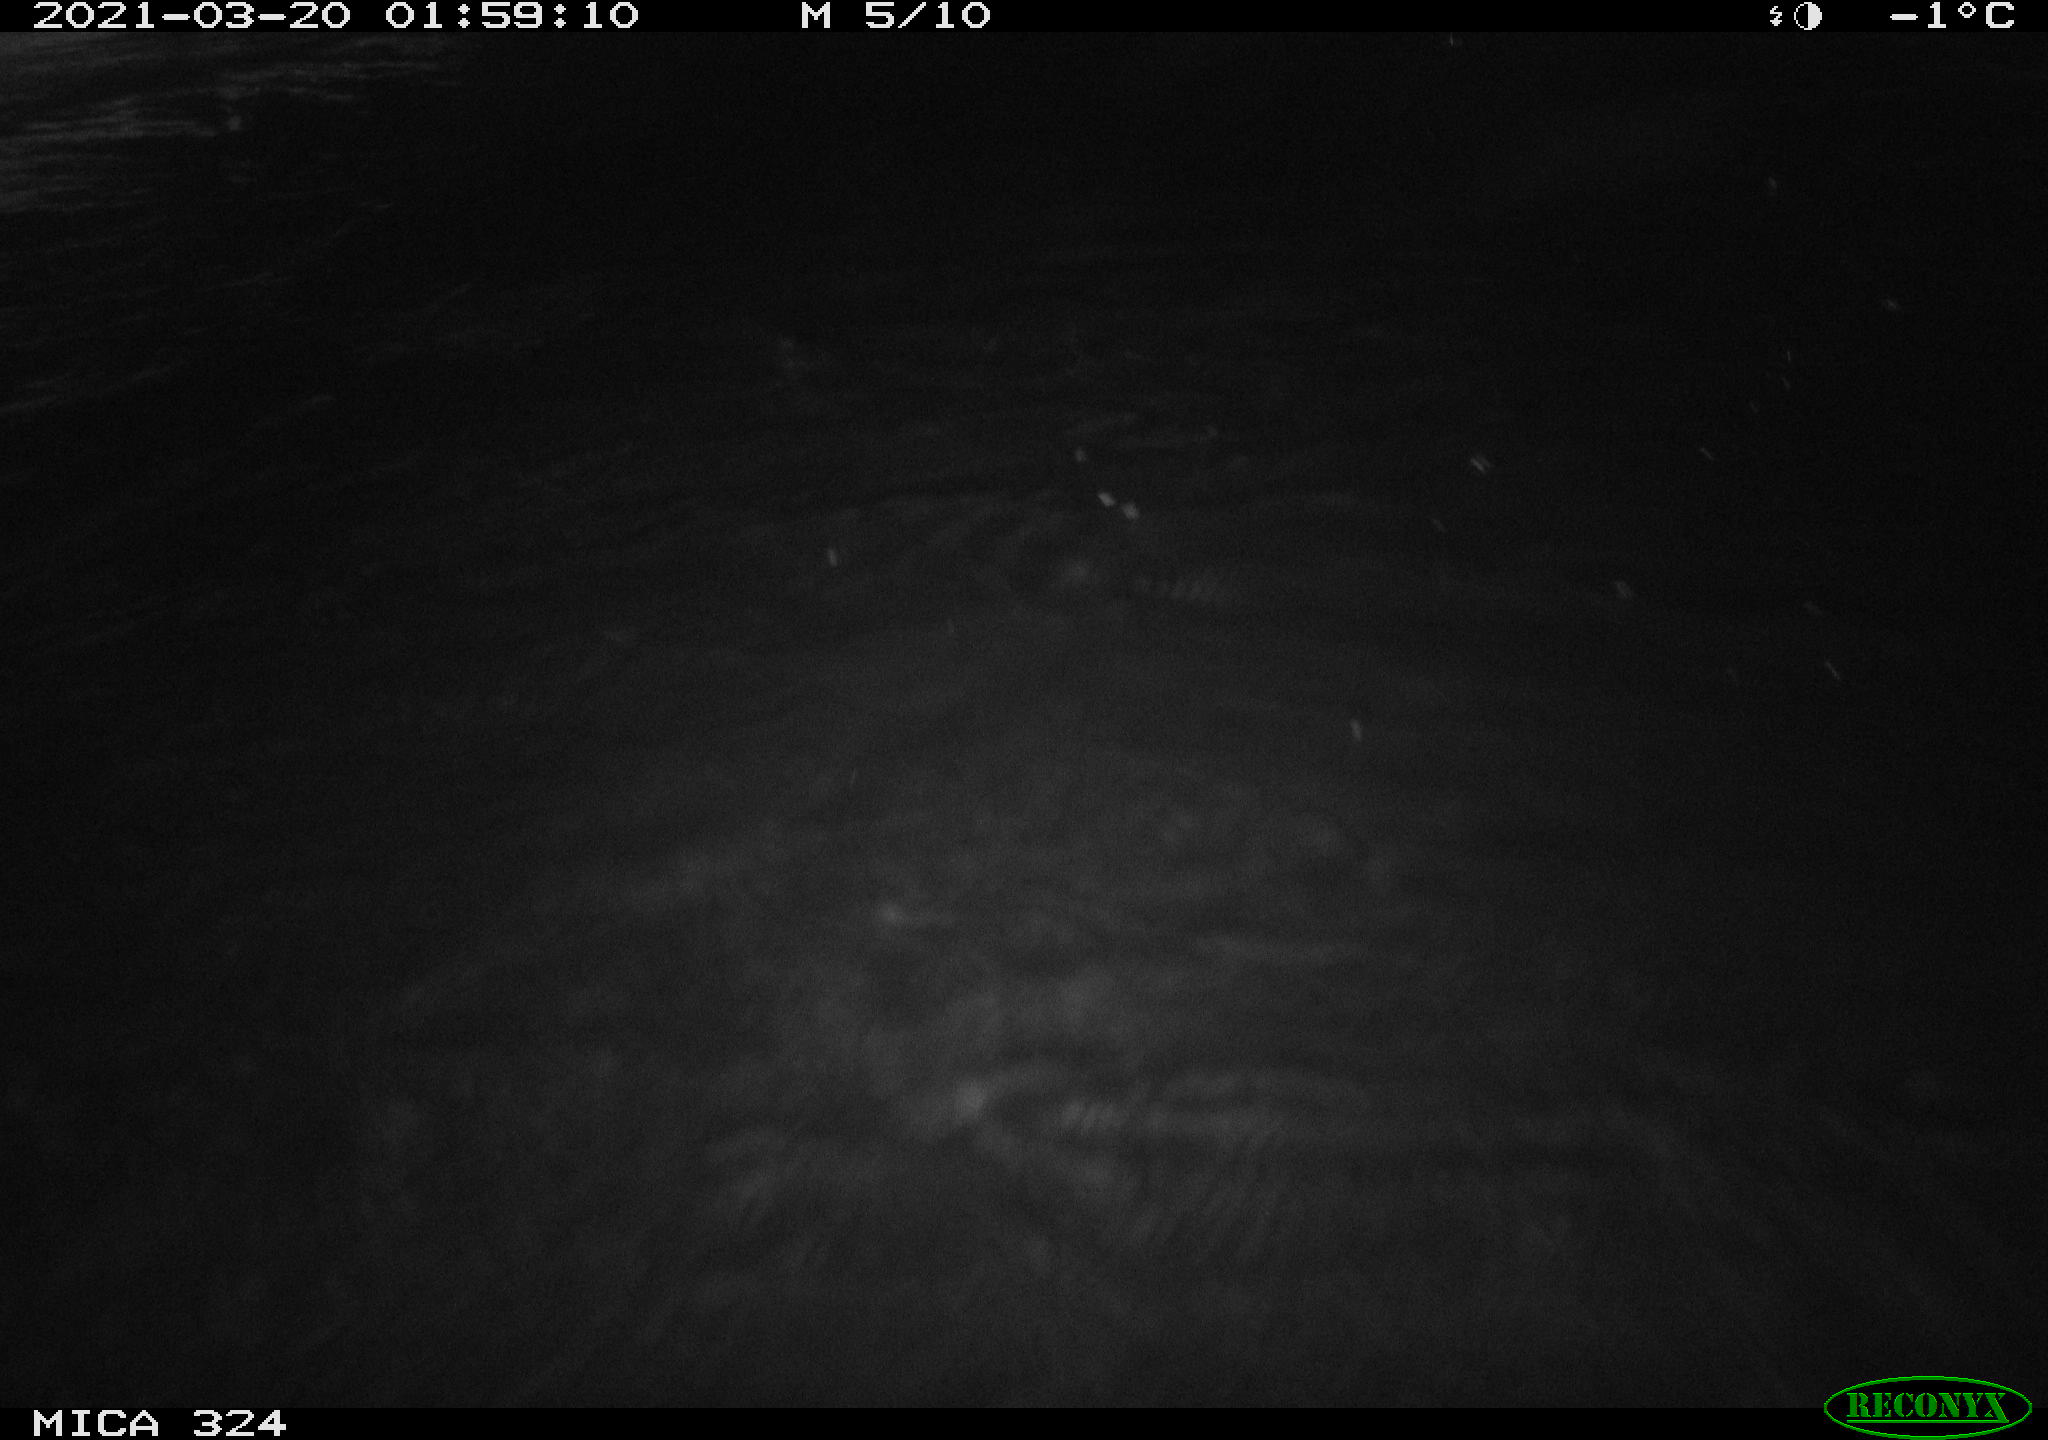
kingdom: Animalia
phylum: Chordata
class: Aves
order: Anseriformes
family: Anatidae
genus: Anas
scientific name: Anas platyrhynchos
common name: Mallard
